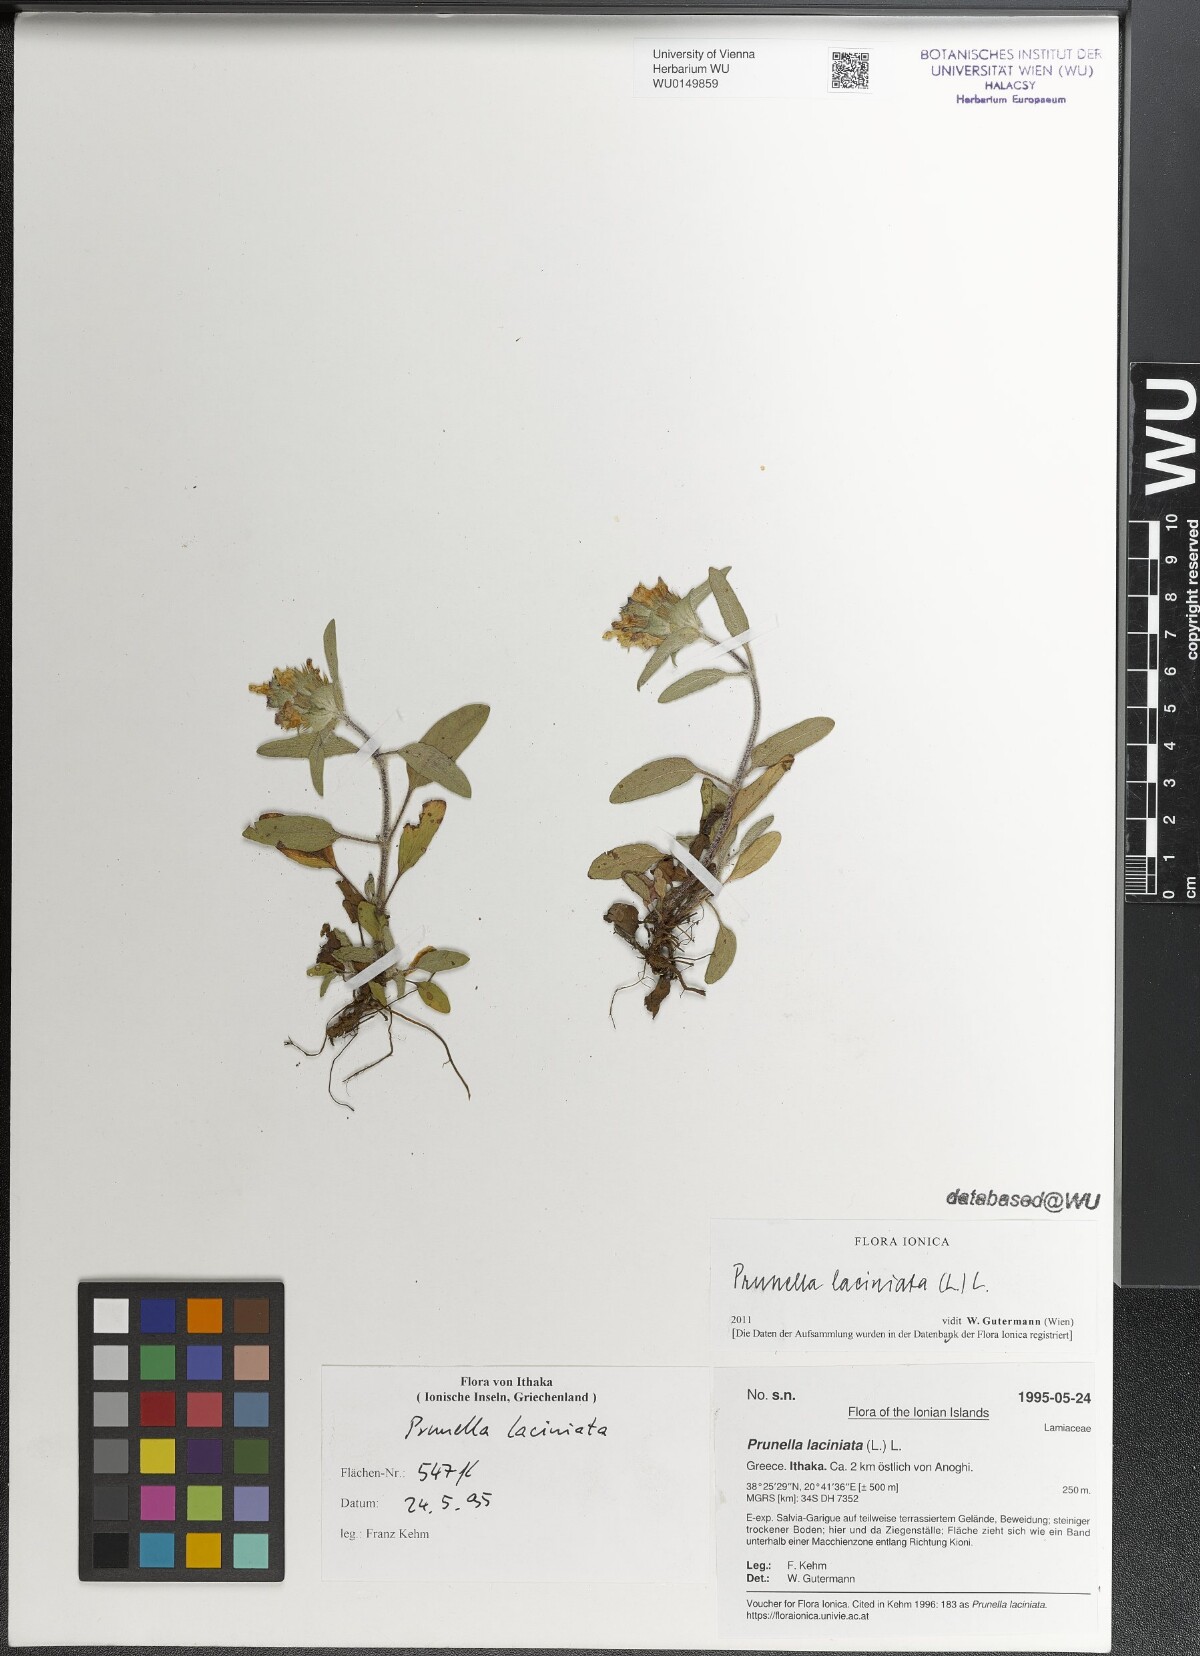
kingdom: Plantae
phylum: Tracheophyta
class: Magnoliopsida
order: Lamiales
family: Lamiaceae
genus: Prunella
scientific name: Prunella laciniata
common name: Cut-leaved selfheal
